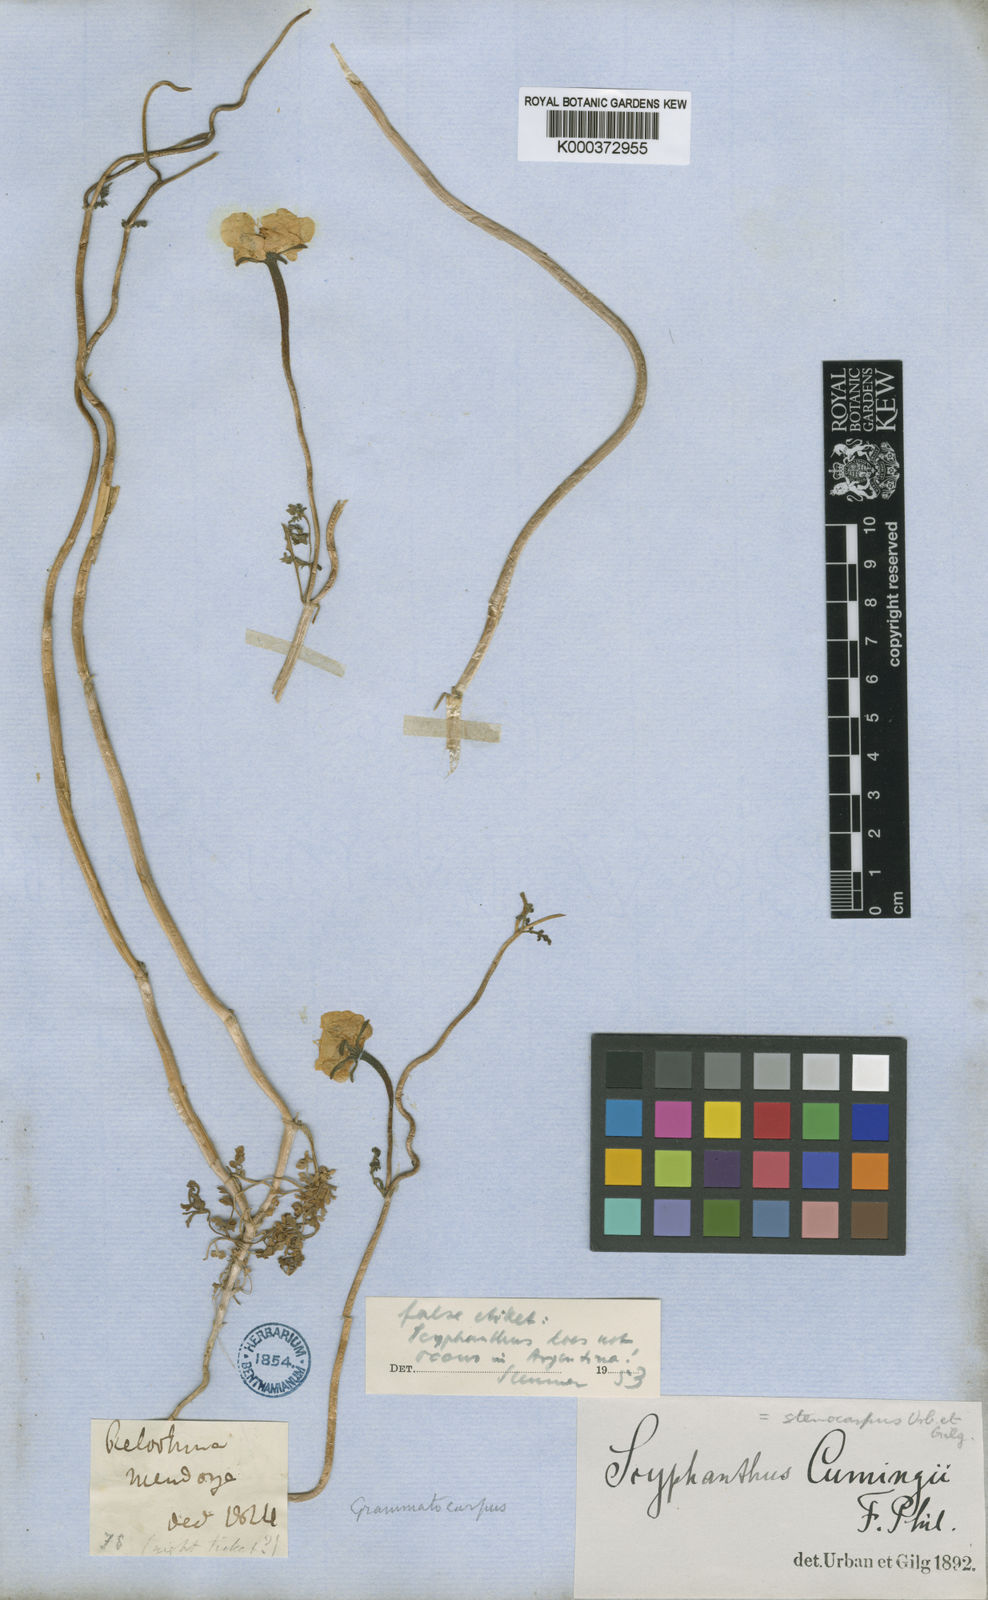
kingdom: Plantae
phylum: Tracheophyta
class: Magnoliopsida
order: Cornales
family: Loasaceae
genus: Scyphanthus
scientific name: Scyphanthus elegans
